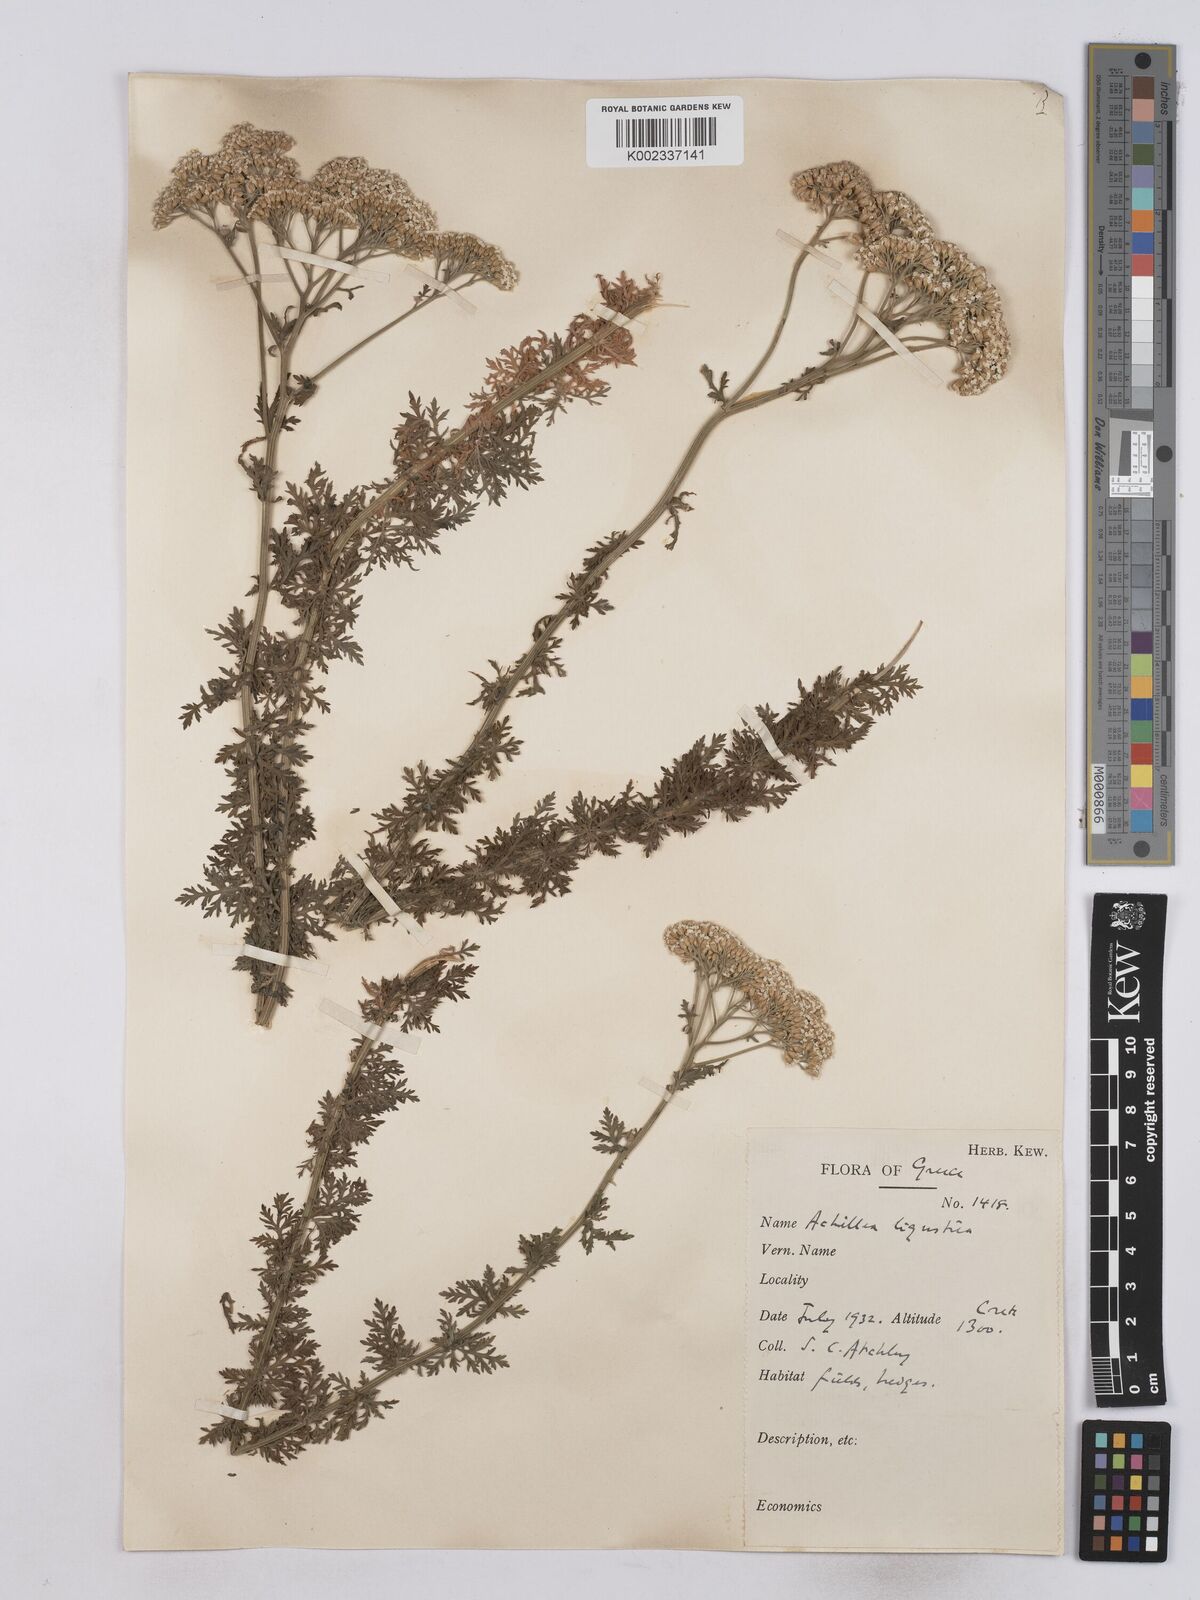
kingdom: Plantae
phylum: Tracheophyta
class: Magnoliopsida
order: Asterales
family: Asteraceae
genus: Achillea
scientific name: Achillea ligustica
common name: Southern yarrow
